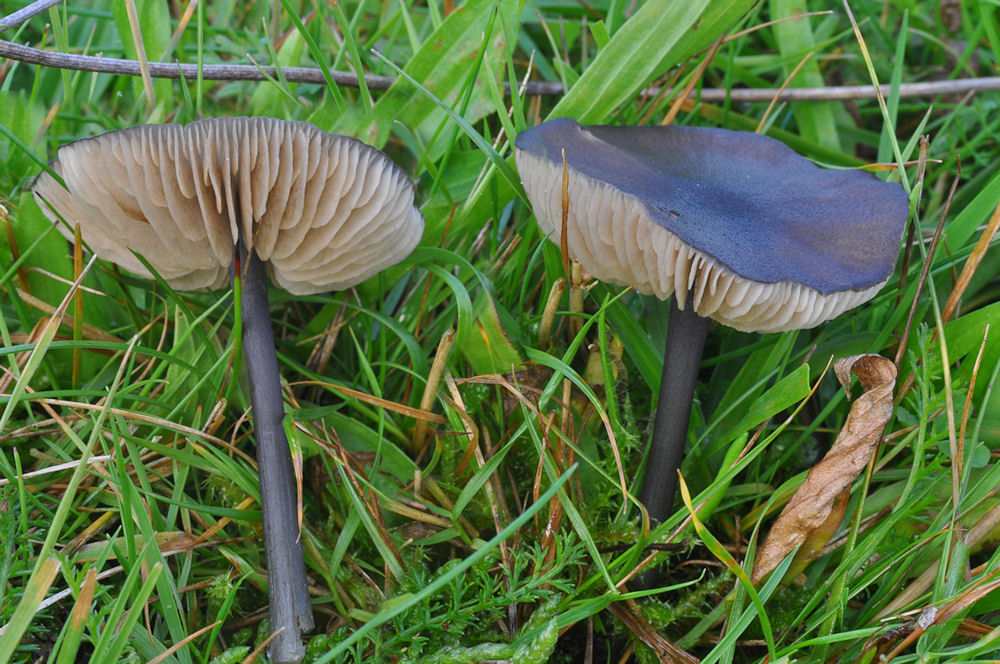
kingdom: Fungi
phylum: Basidiomycota
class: Agaricomycetes
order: Agaricales
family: Entolomataceae
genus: Entoloma
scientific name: Entoloma atrocoeruleum
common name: sortblå rødblad
